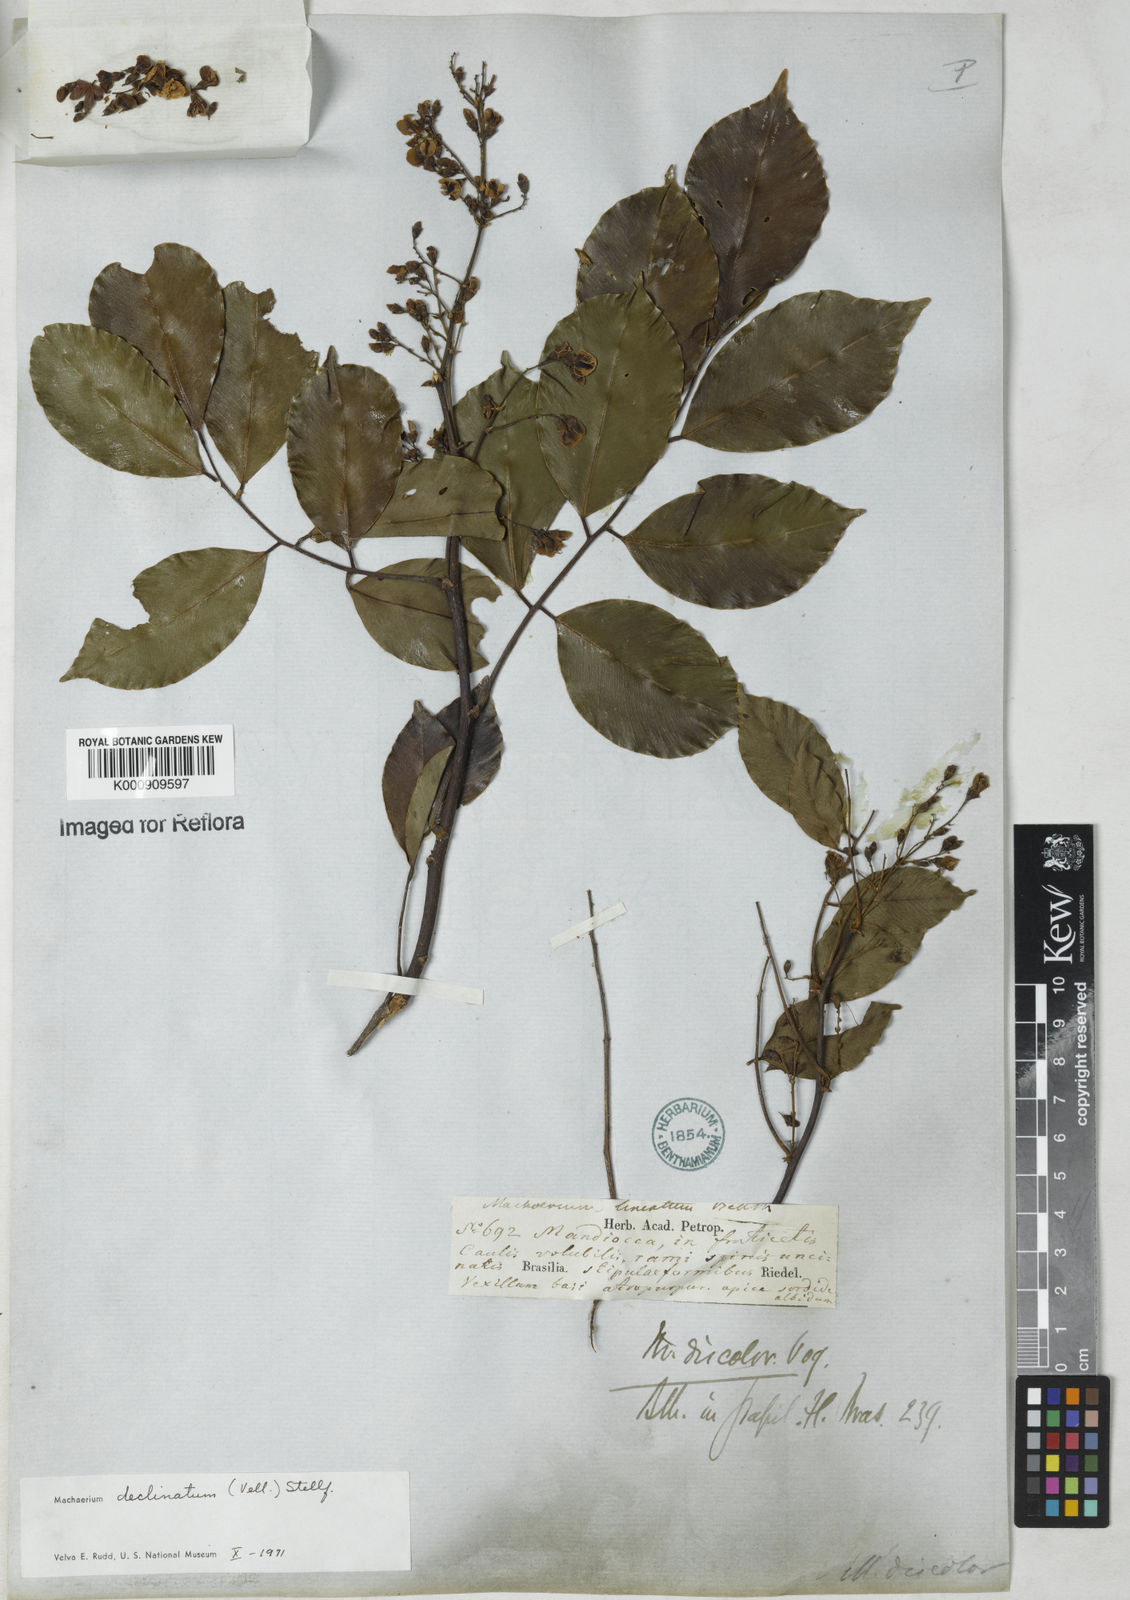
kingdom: Plantae
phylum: Tracheophyta
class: Magnoliopsida
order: Fabales
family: Fabaceae
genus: Machaerium
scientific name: Machaerium declinatum
